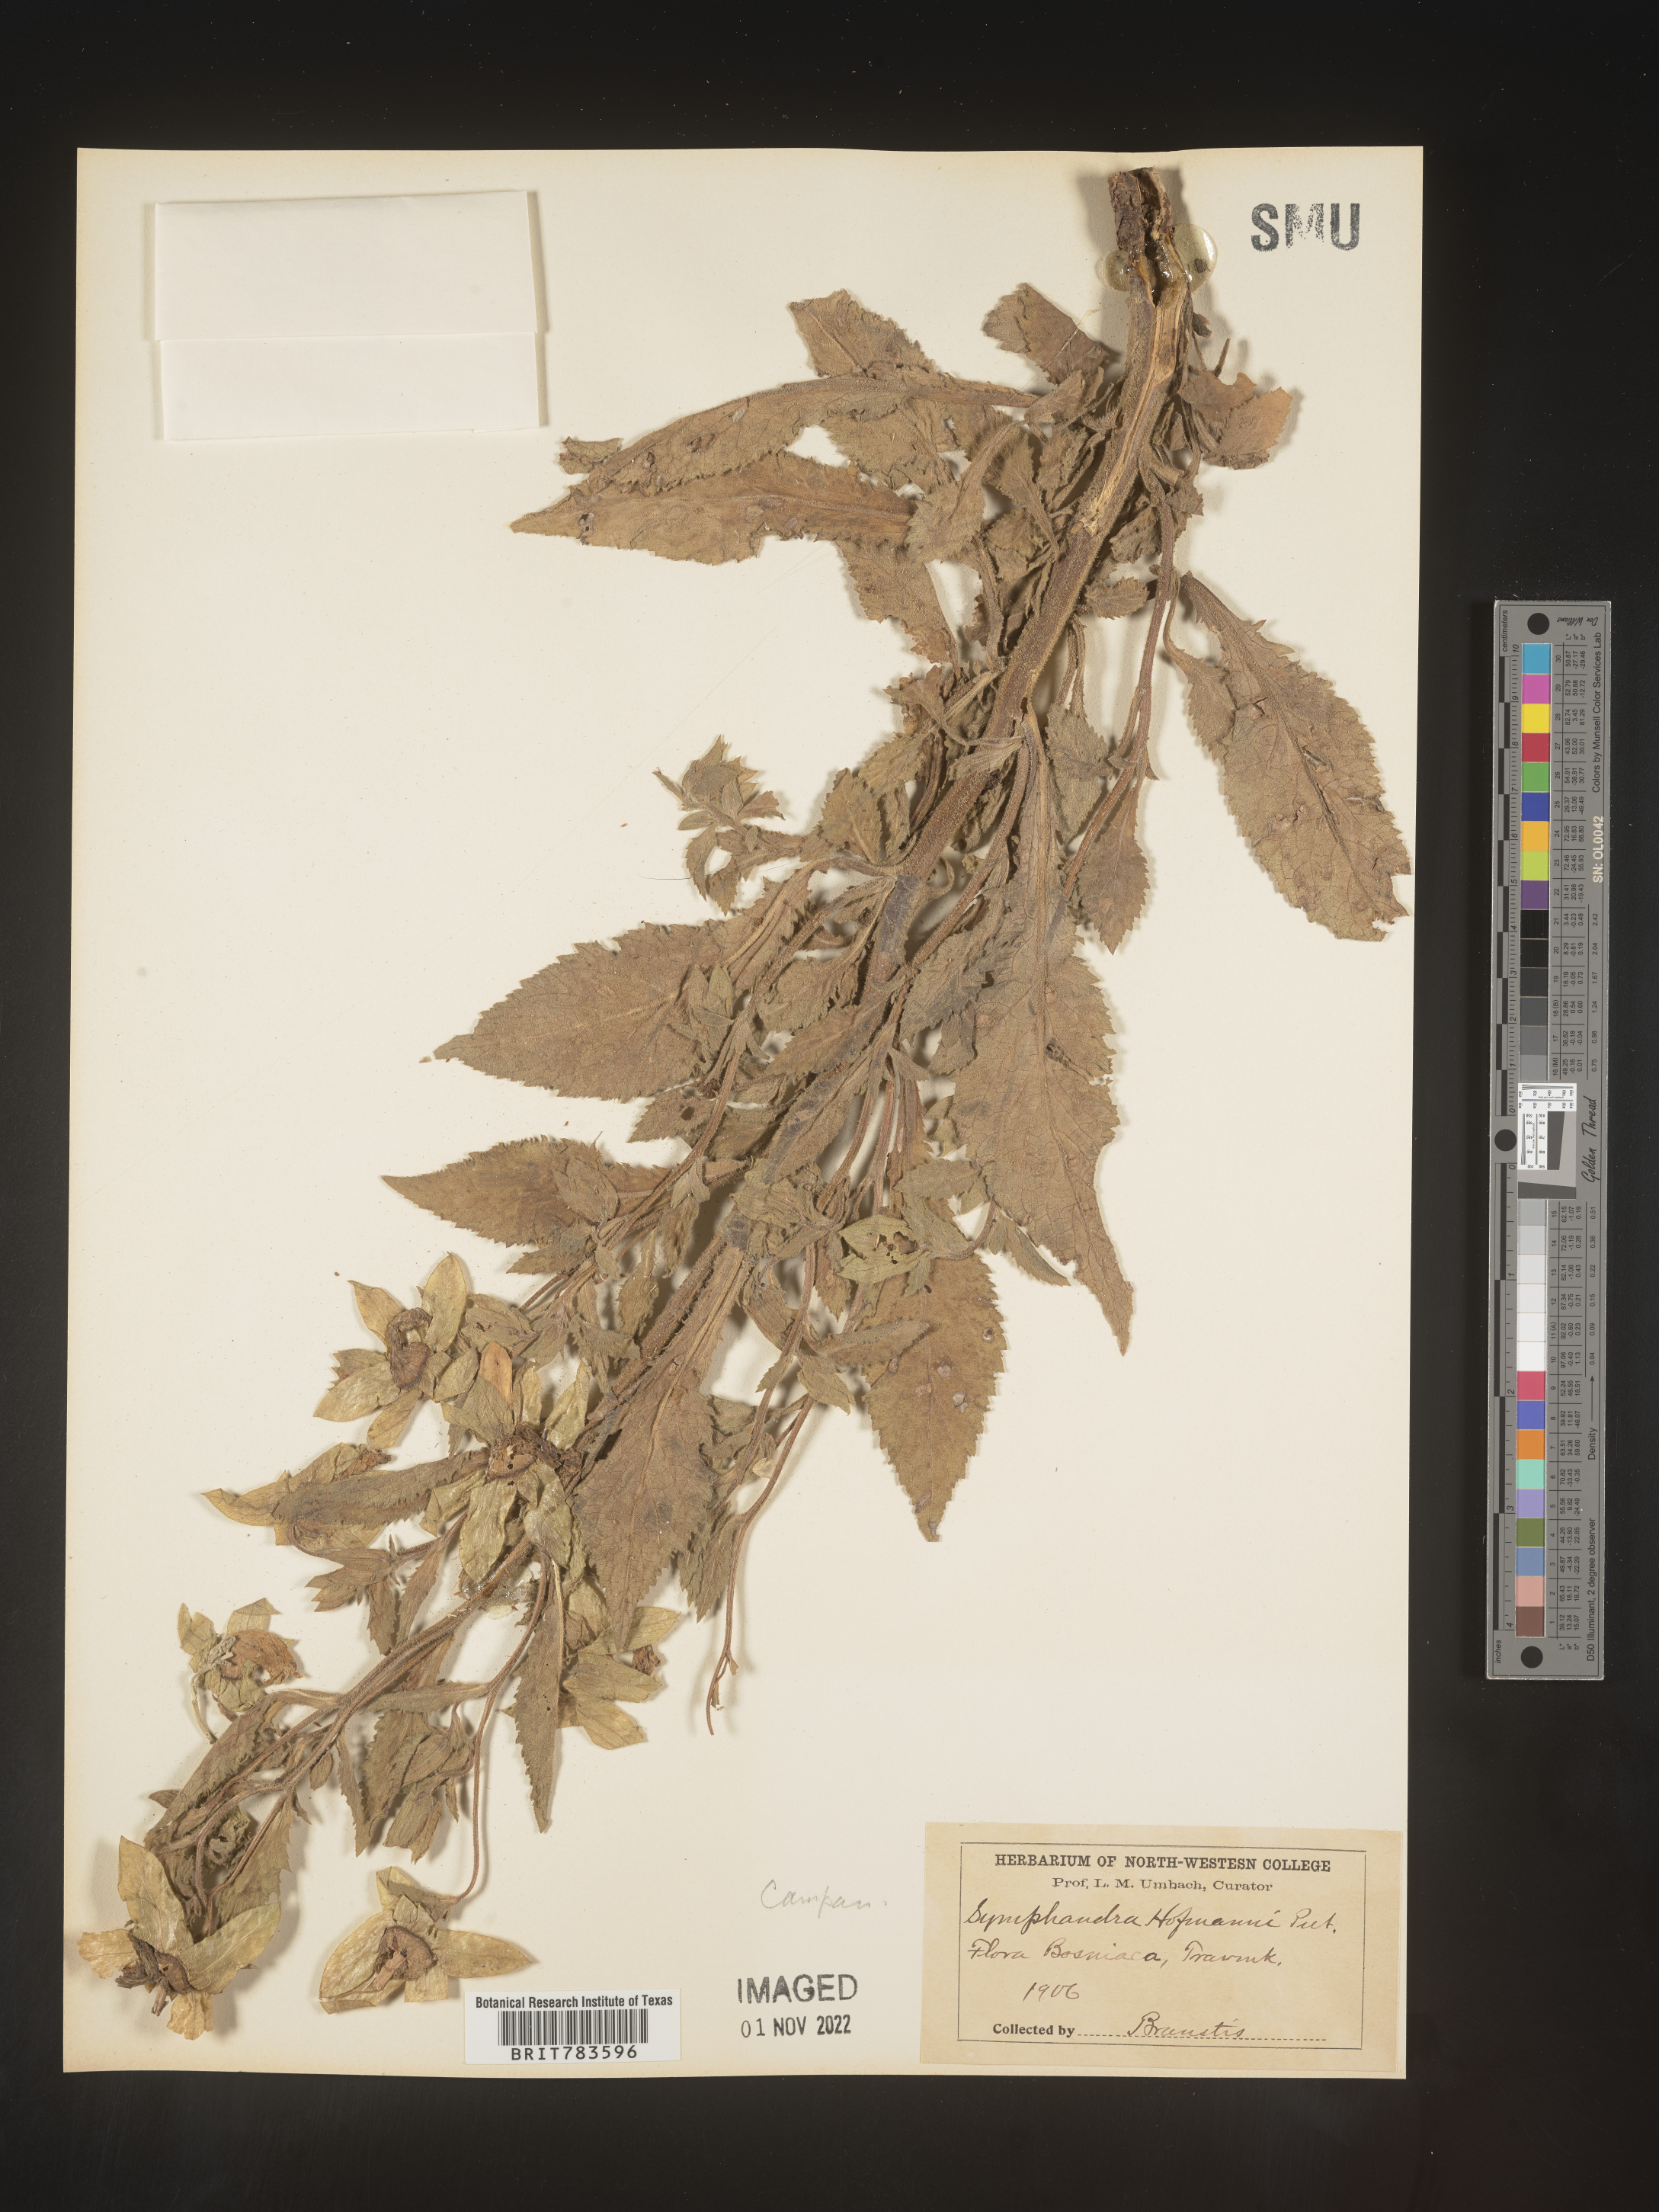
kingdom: Plantae
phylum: Tracheophyta
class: Magnoliopsida
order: Asterales
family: Campanulaceae
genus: Campanula
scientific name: Campanula
